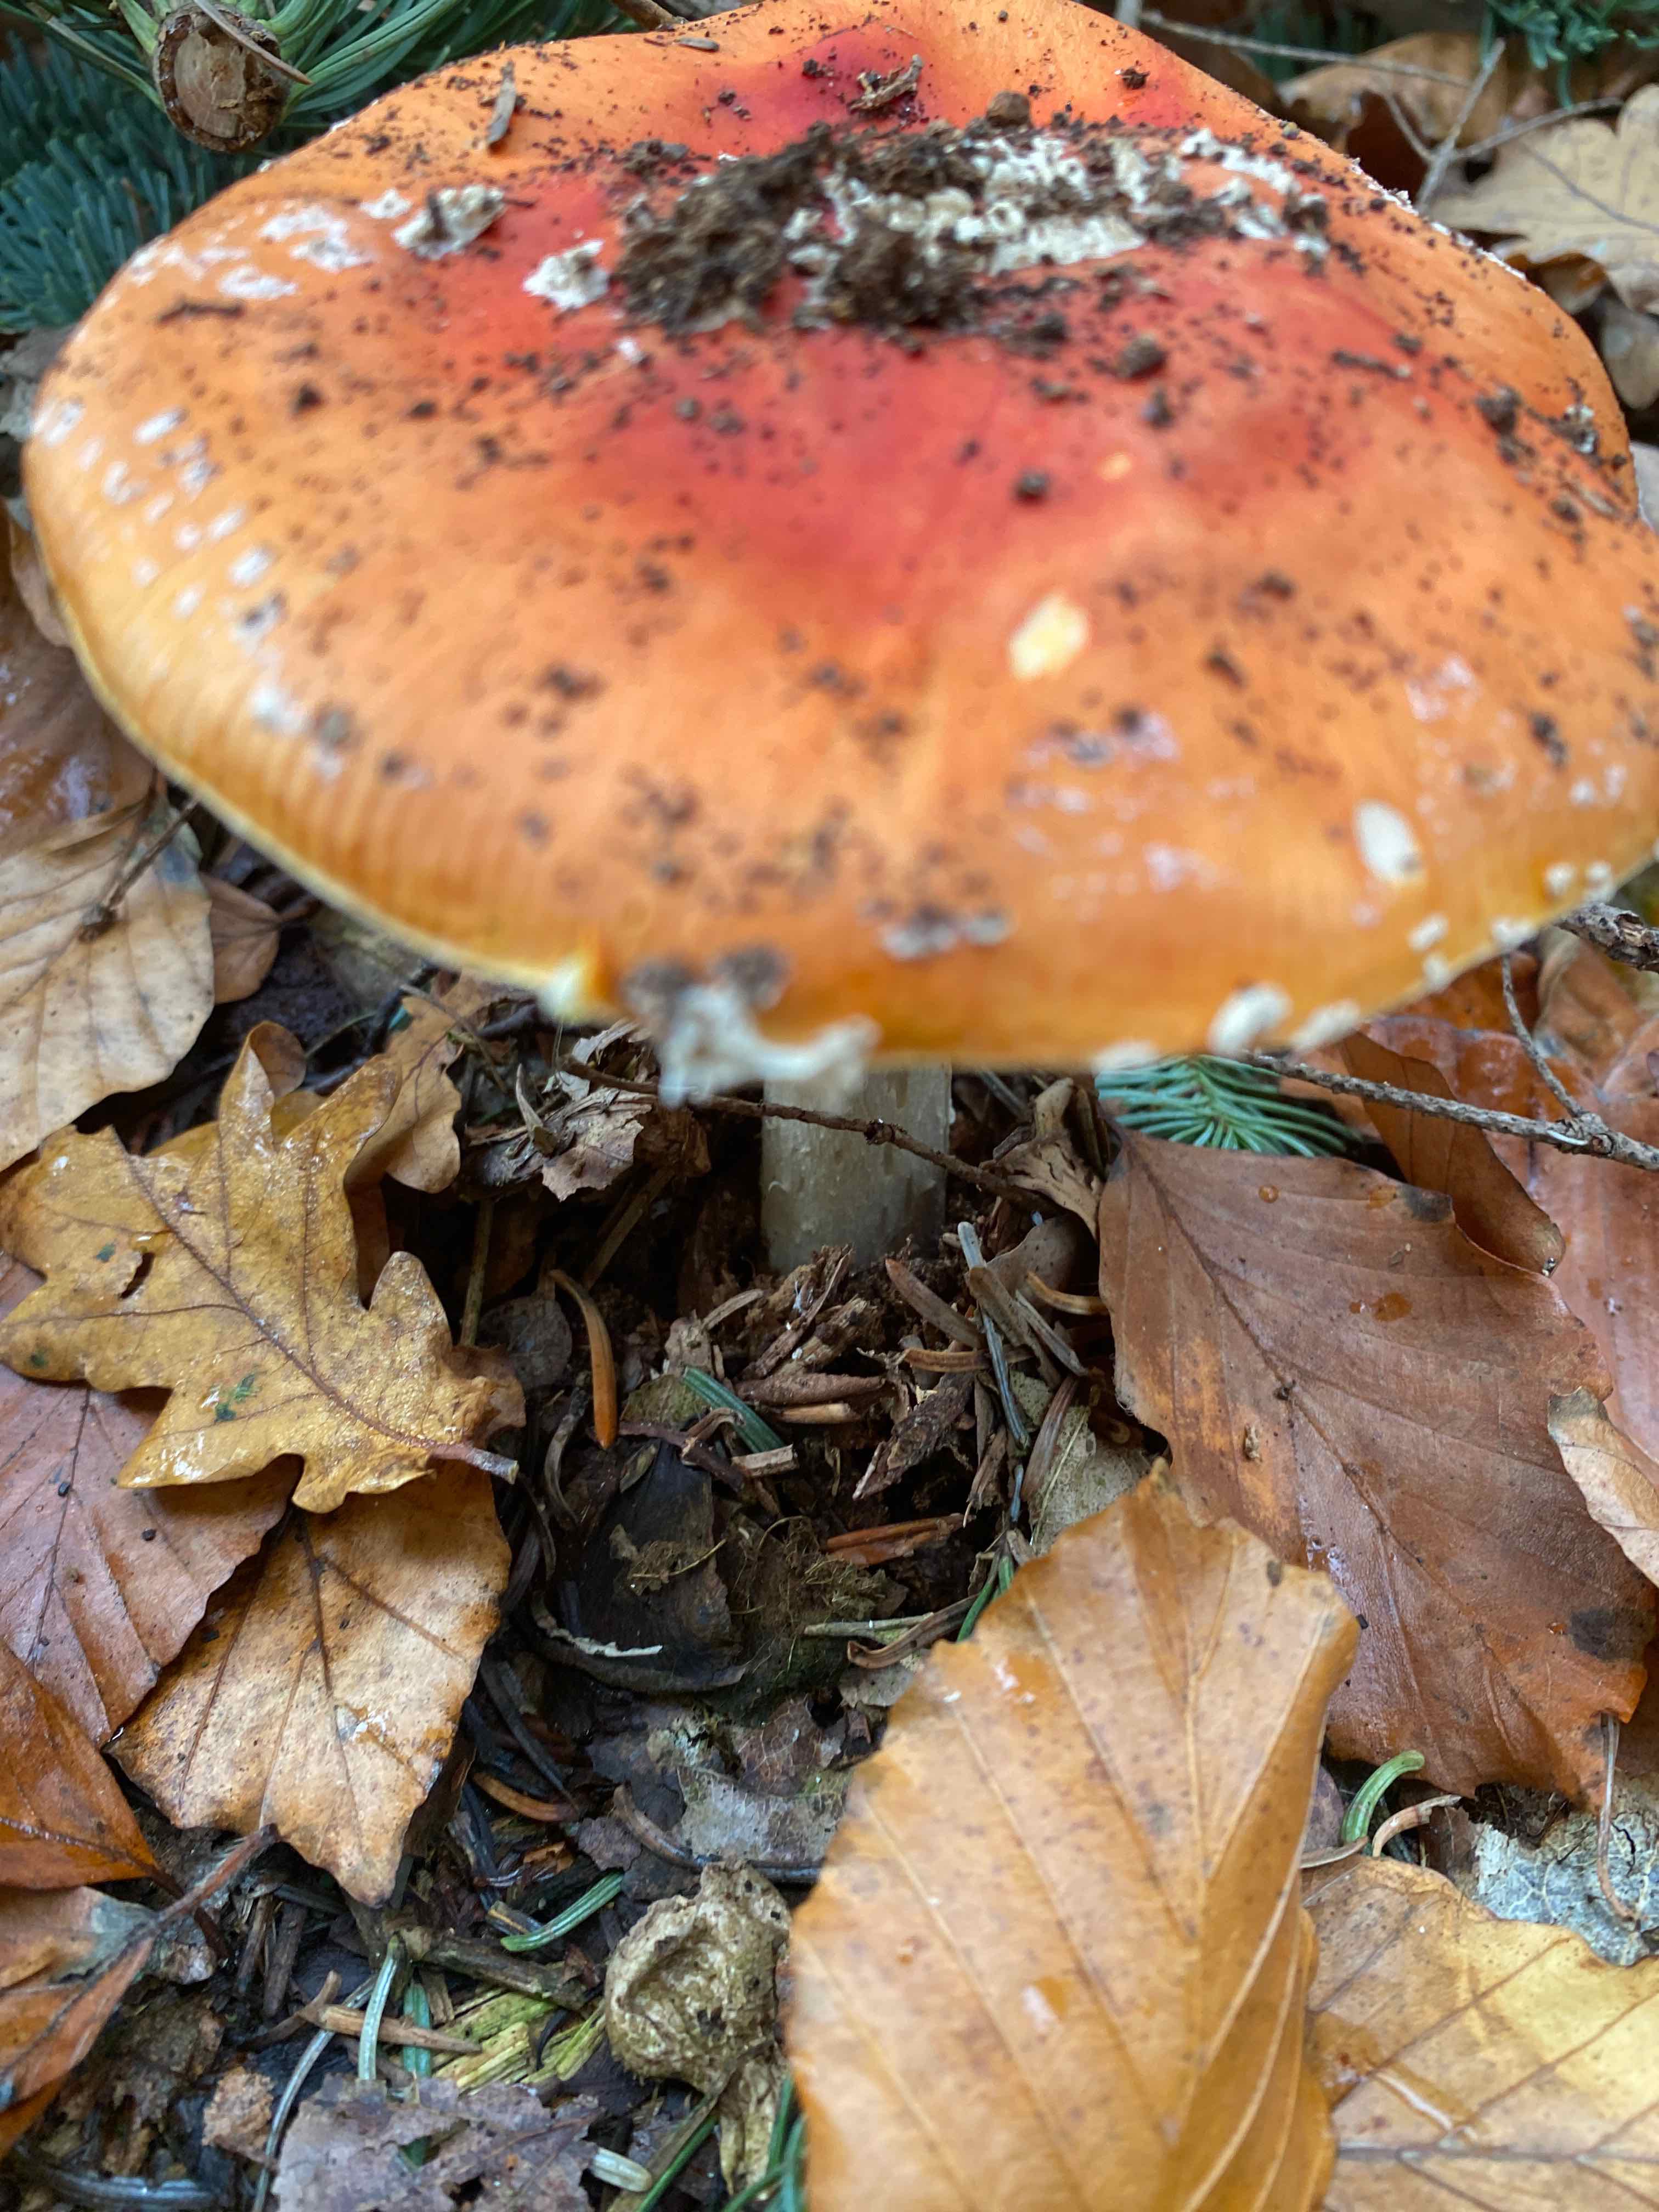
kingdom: Fungi
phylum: Basidiomycota
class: Agaricomycetes
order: Agaricales
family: Amanitaceae
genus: Amanita
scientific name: Amanita muscaria
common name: rød fluesvamp
